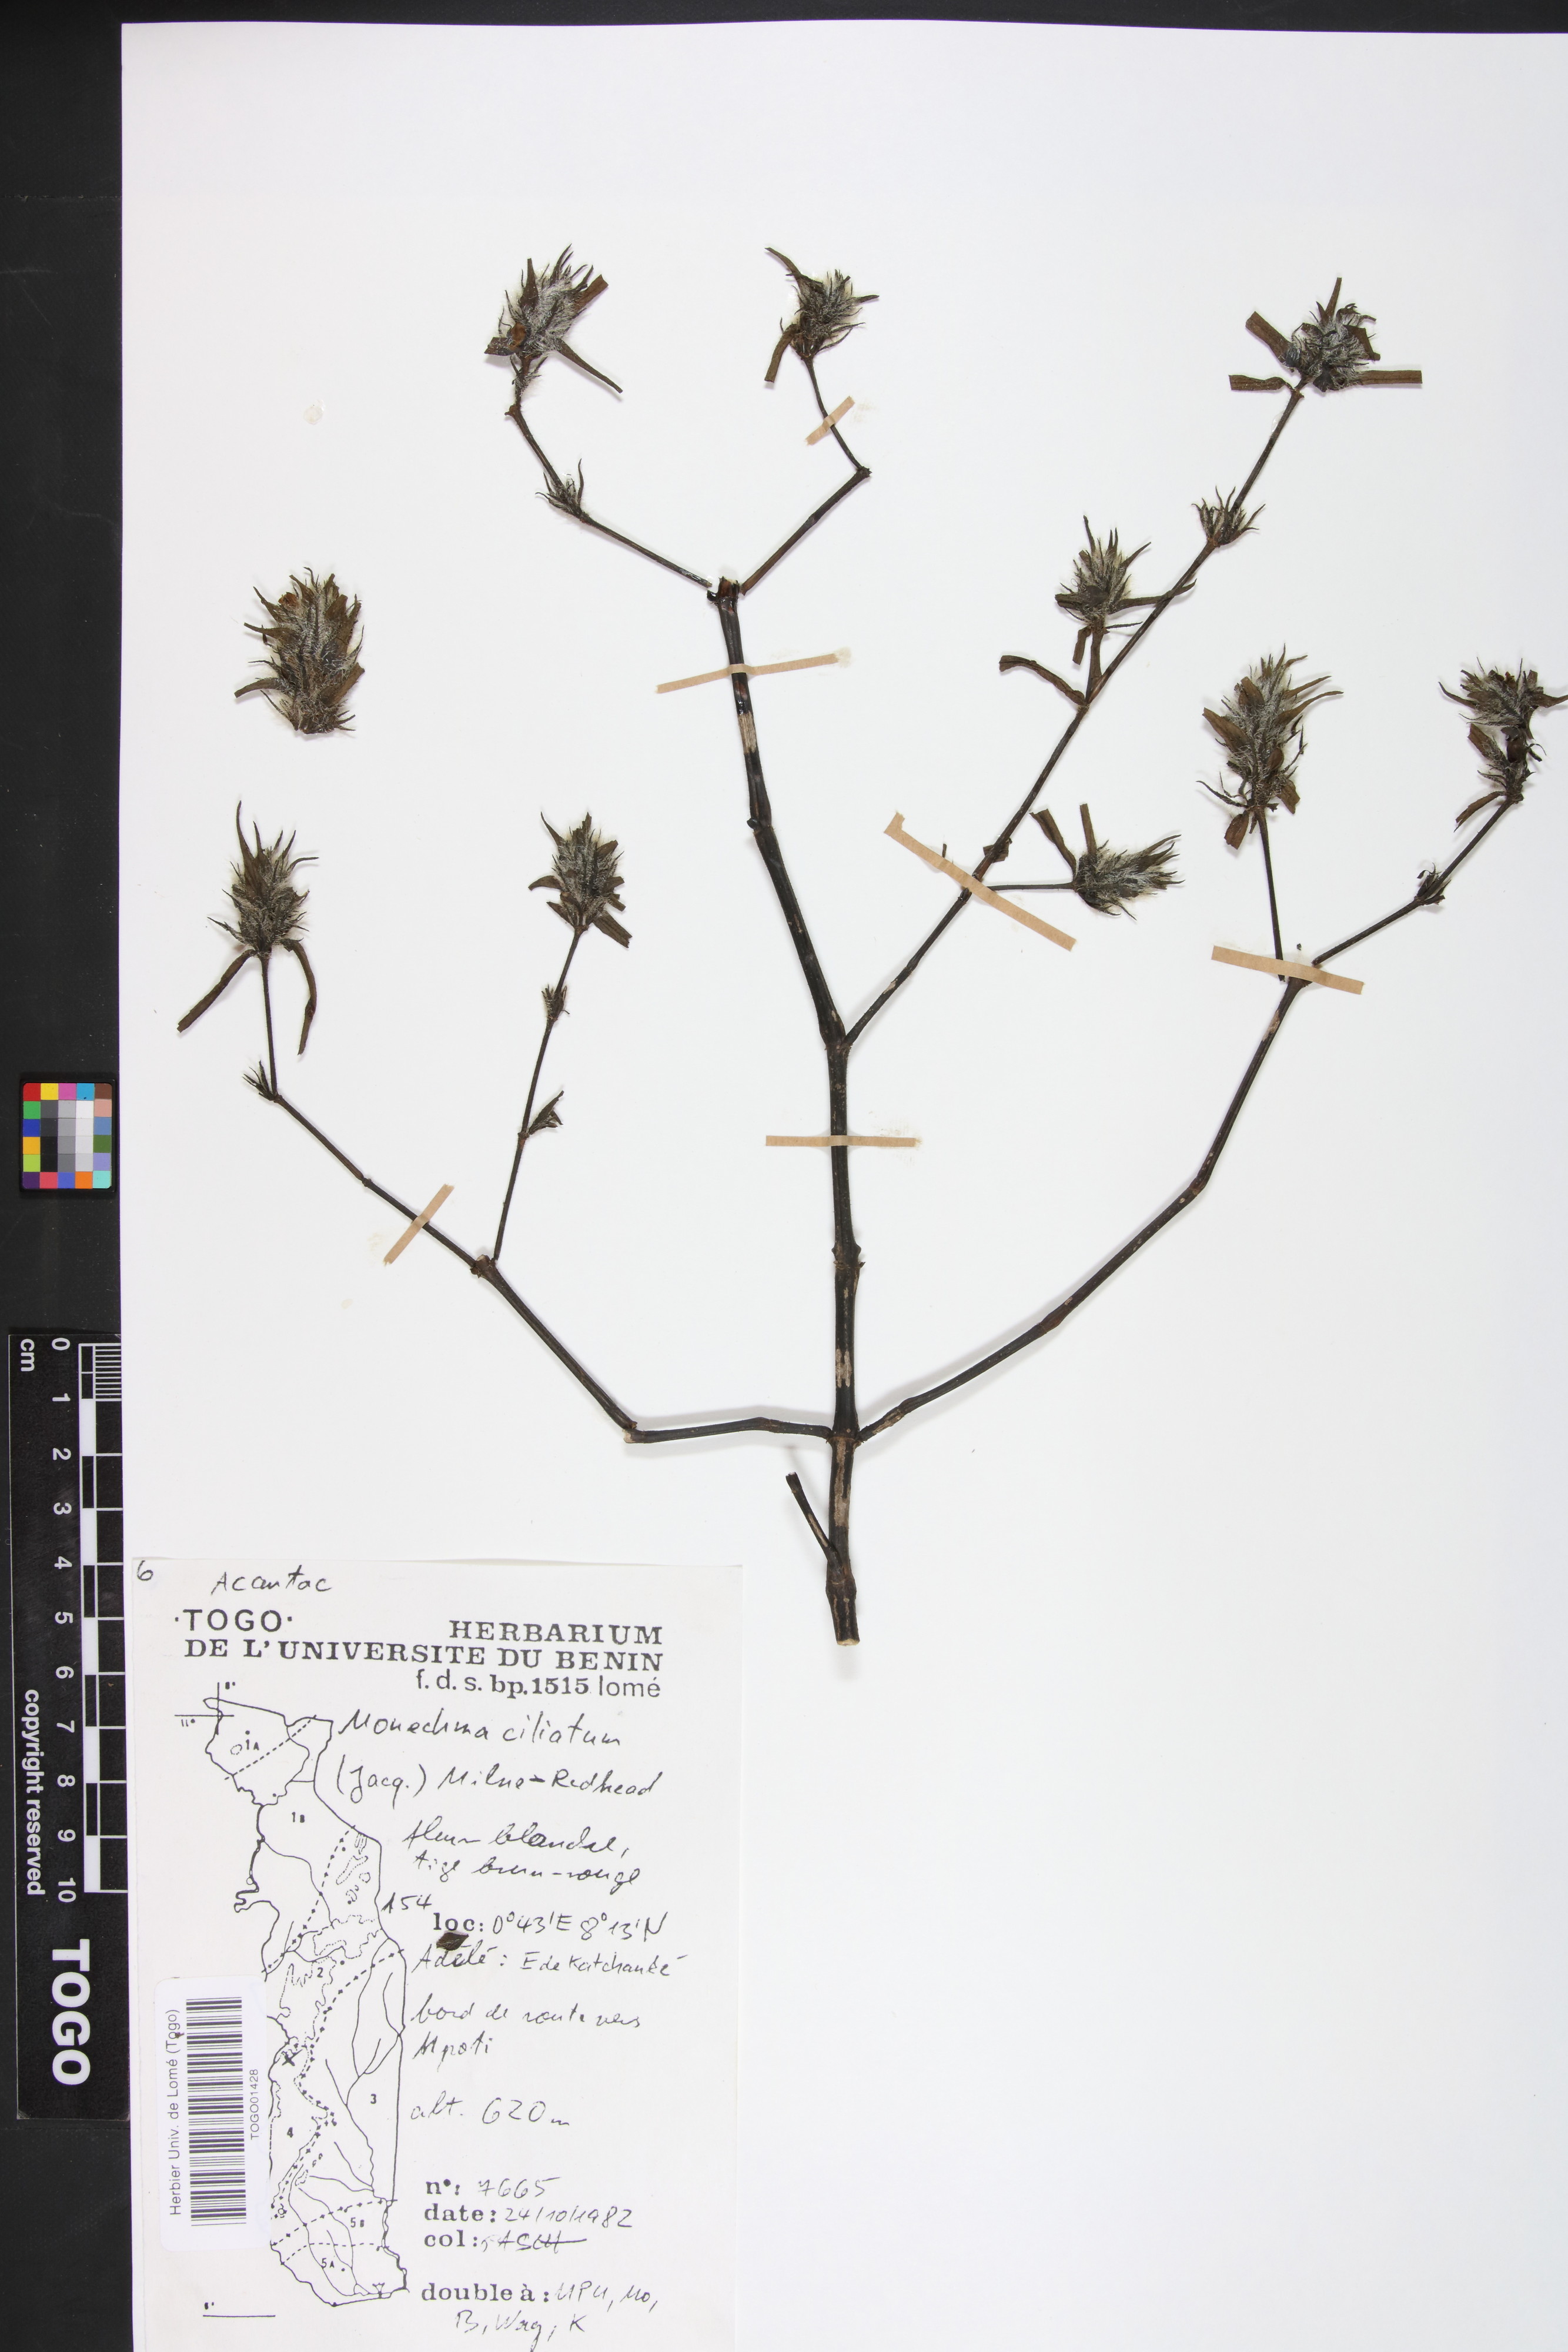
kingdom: Plantae
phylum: Tracheophyta
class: Magnoliopsida
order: Lamiales
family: Acanthaceae
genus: Pogonospermum
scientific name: Pogonospermum ciliare
